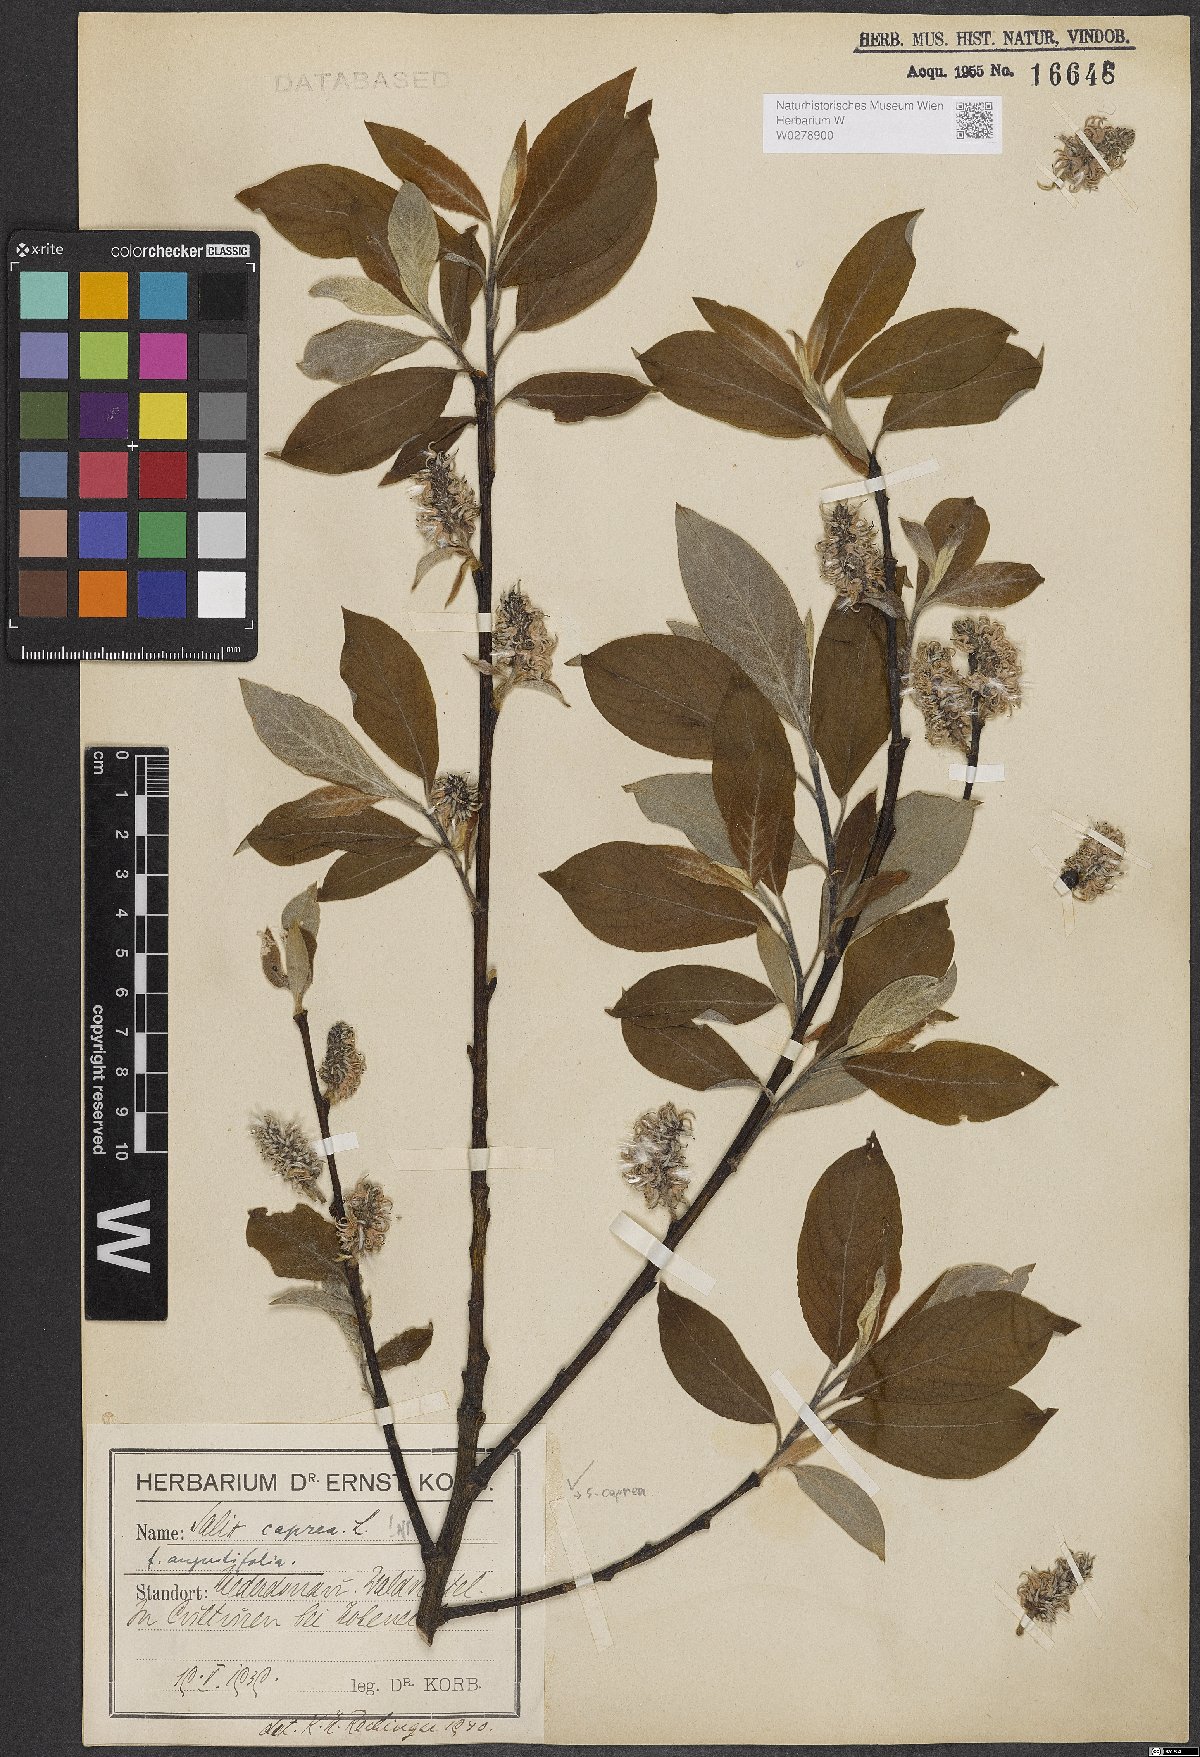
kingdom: Plantae
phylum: Tracheophyta
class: Magnoliopsida
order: Malpighiales
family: Salicaceae
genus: Salix
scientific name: Salix caprea
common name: Goat willow
